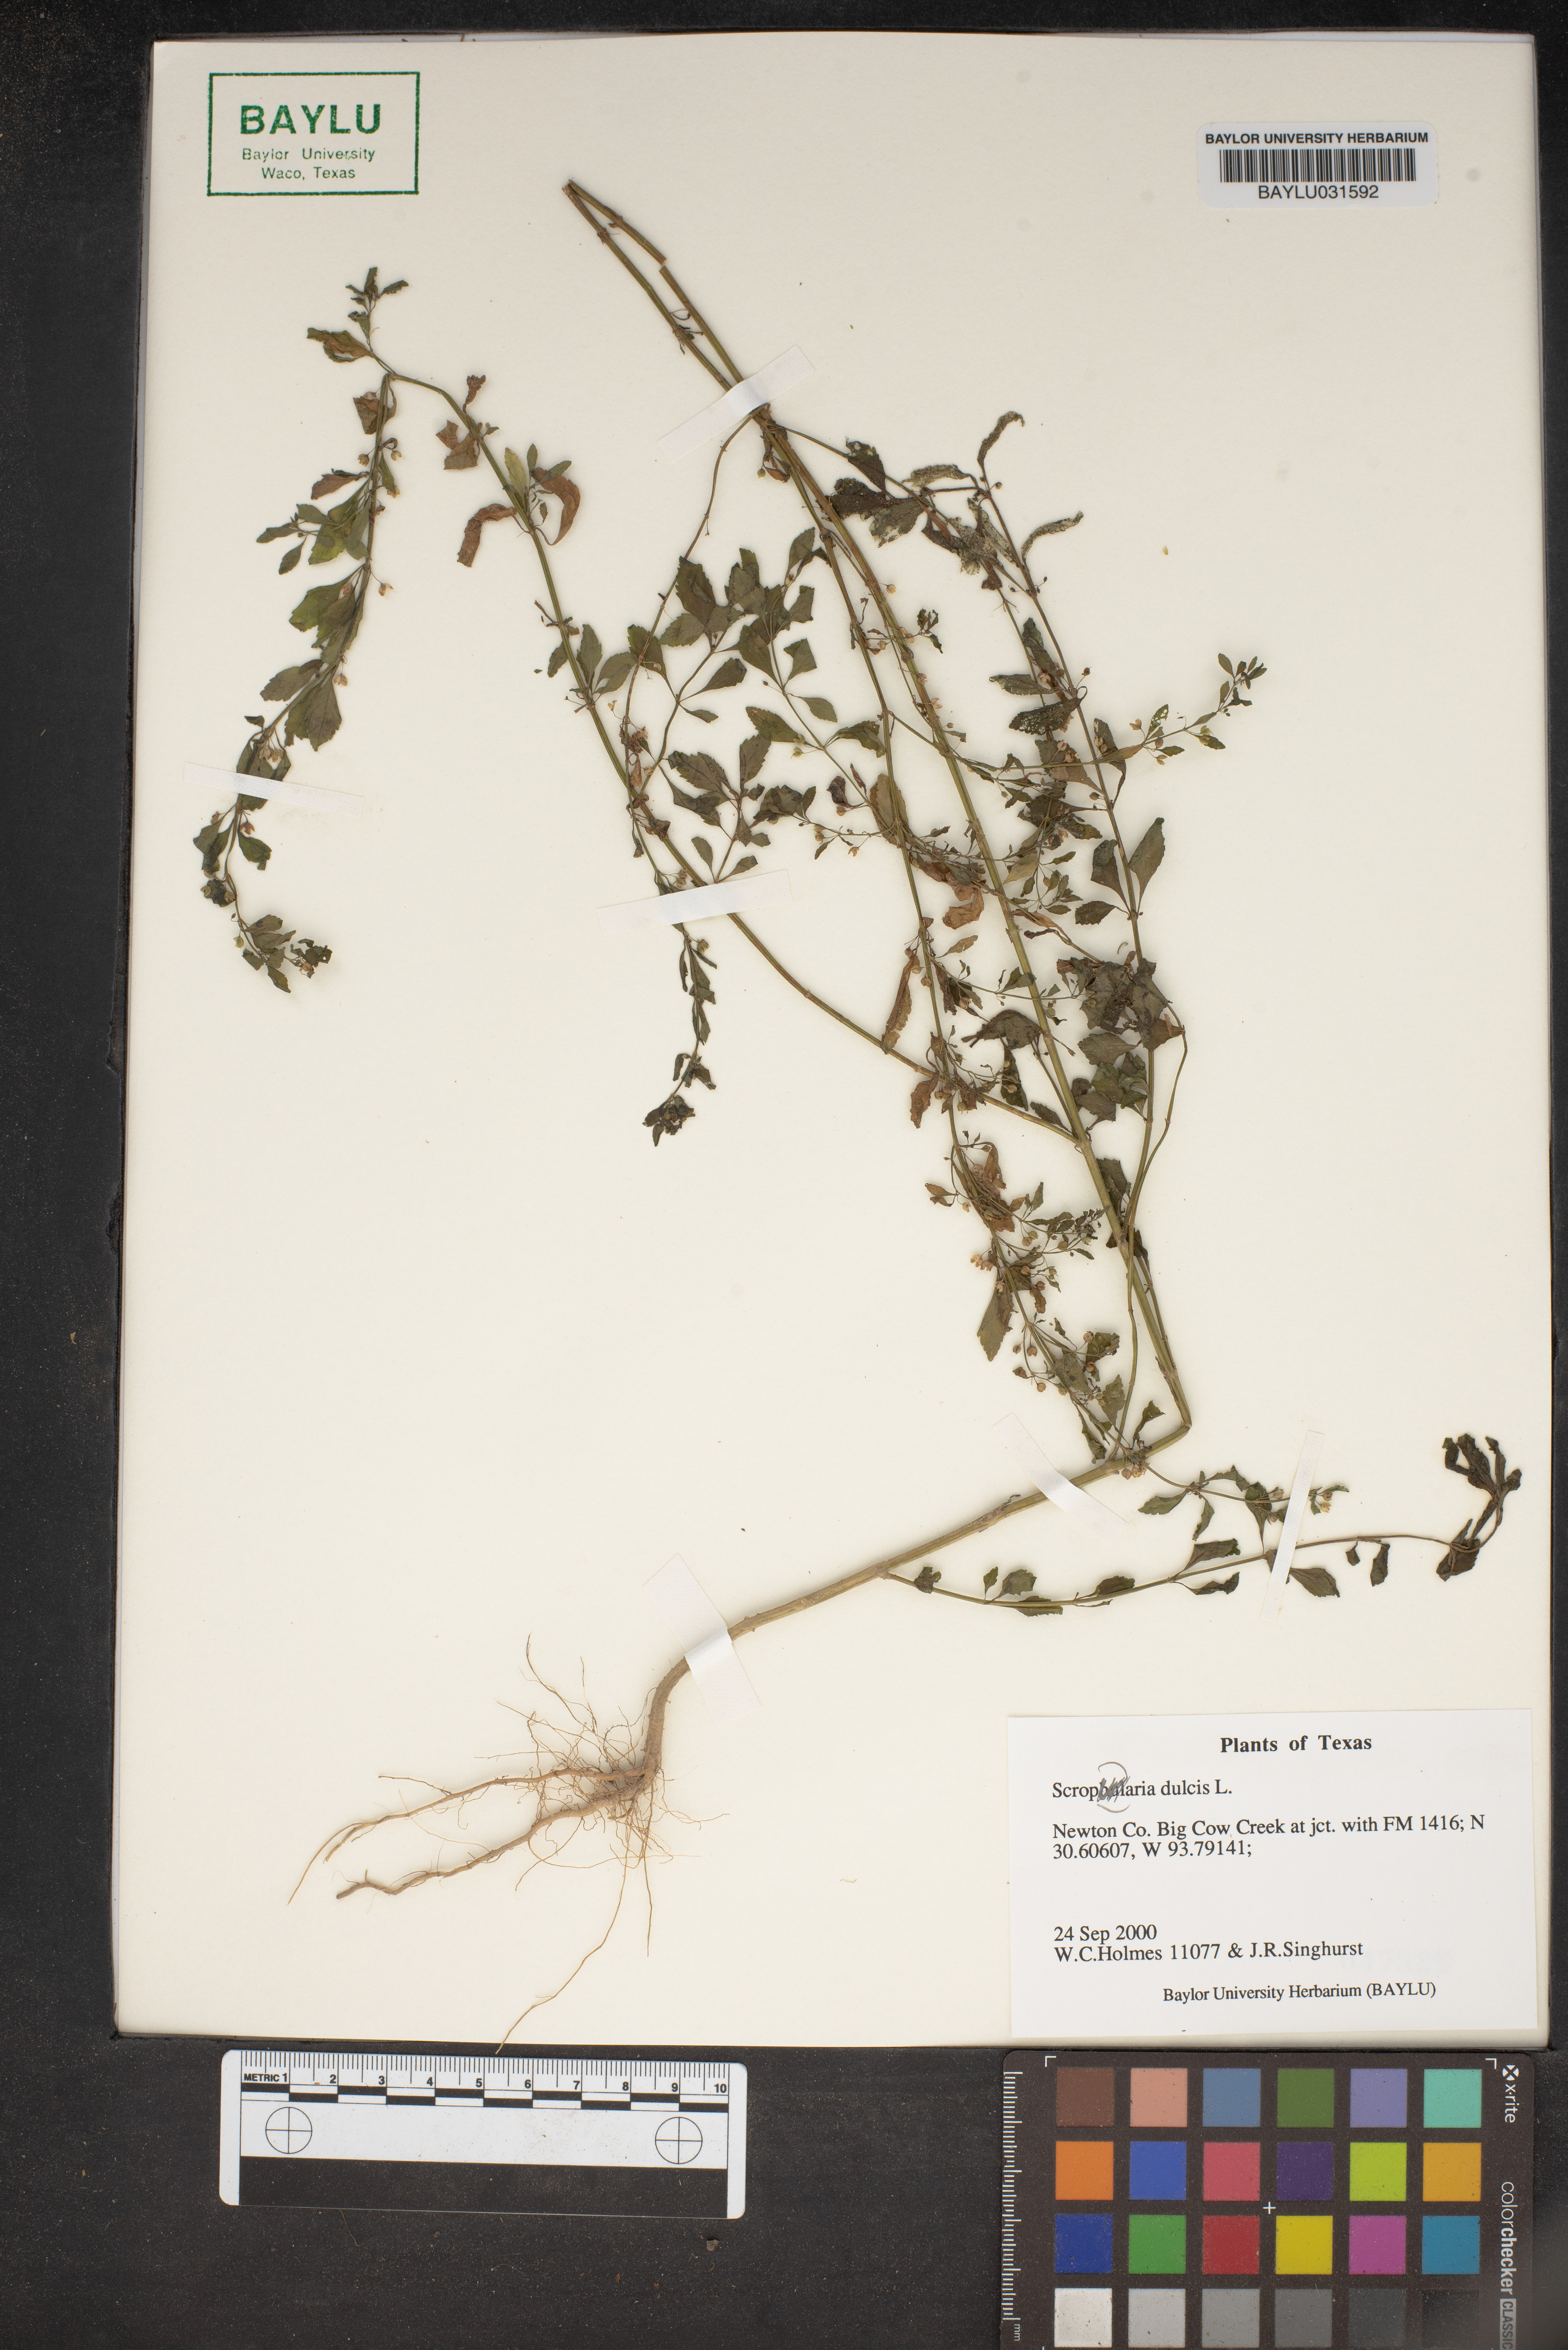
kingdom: Plantae
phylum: Tracheophyta
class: Magnoliopsida
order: Lamiales
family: Scrophulariaceae
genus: Scrophularia
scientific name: Scrophularia
